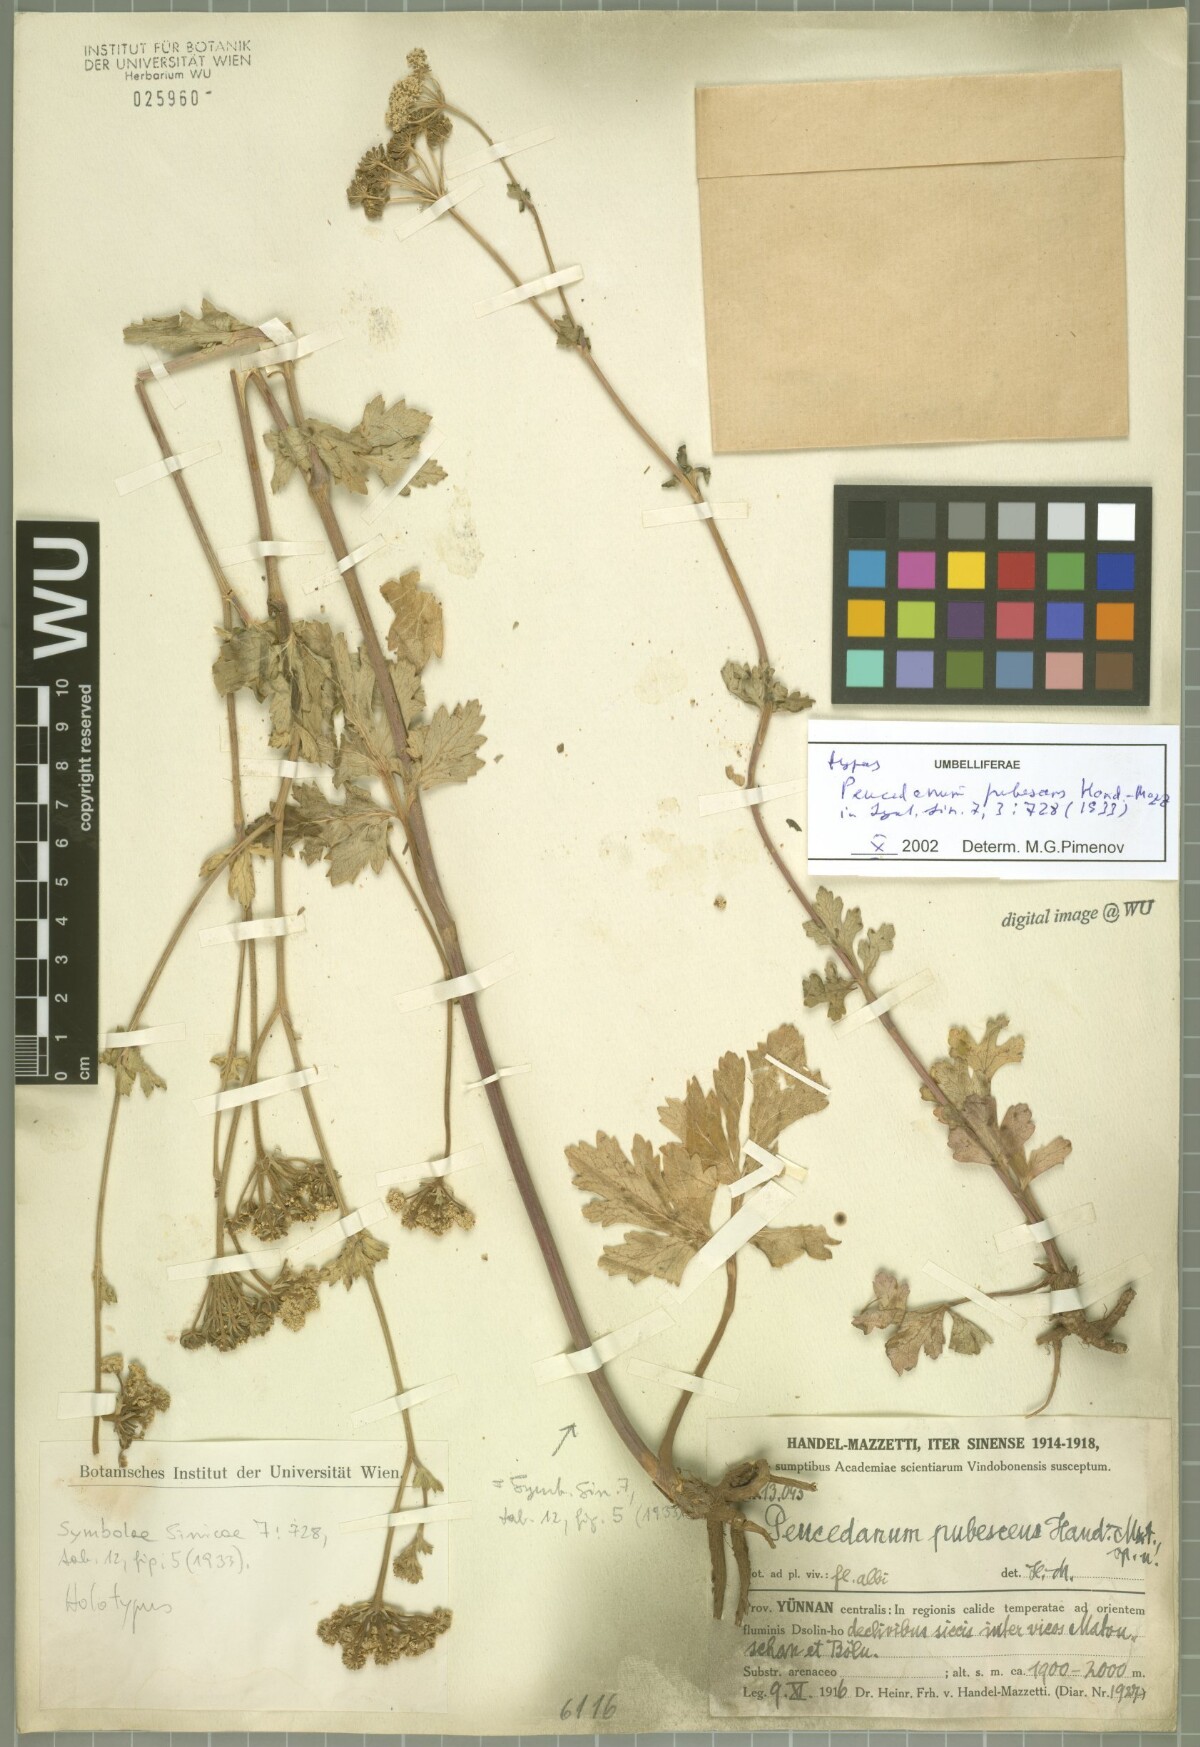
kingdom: Plantae
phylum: Tracheophyta
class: Magnoliopsida
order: Apiales
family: Apiaceae
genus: Ligusticopsis
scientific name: Ligusticopsis pubescens
